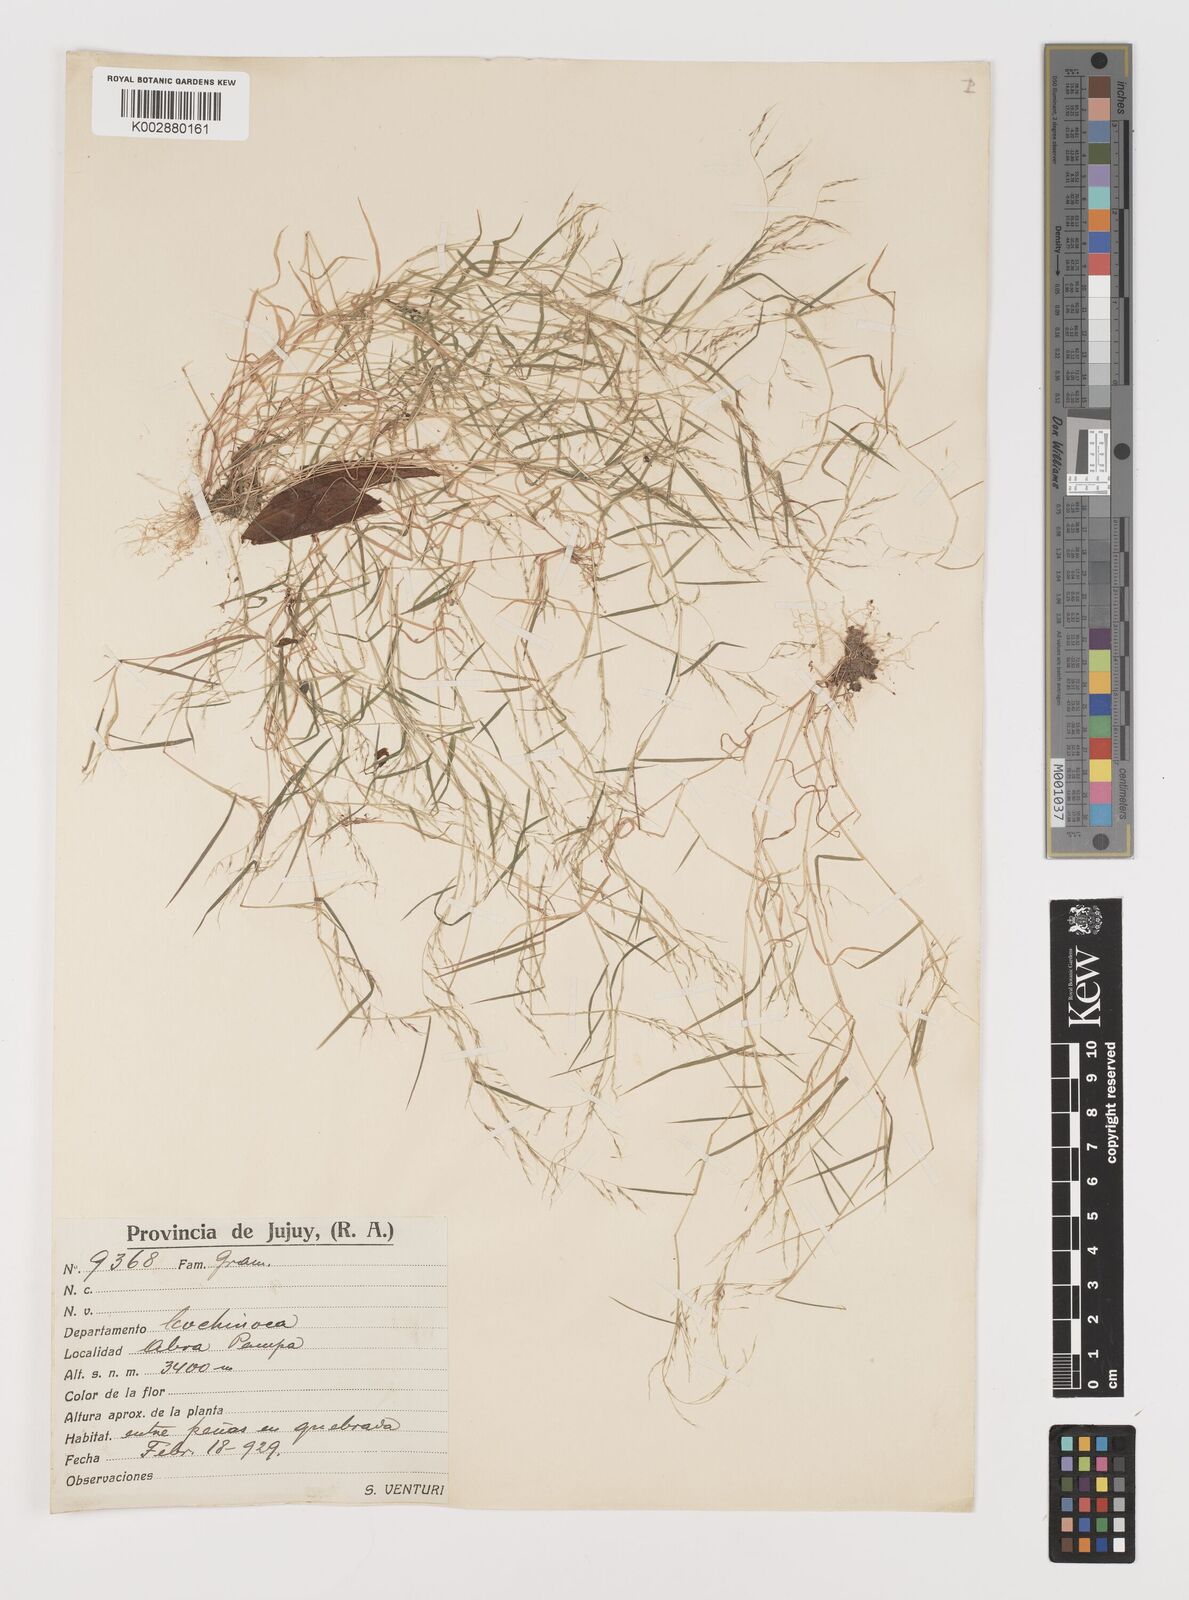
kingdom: Plantae
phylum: Tracheophyta
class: Liliopsida
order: Poales
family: Poaceae
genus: Muhlenbergia
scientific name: Muhlenbergia tenuissima
